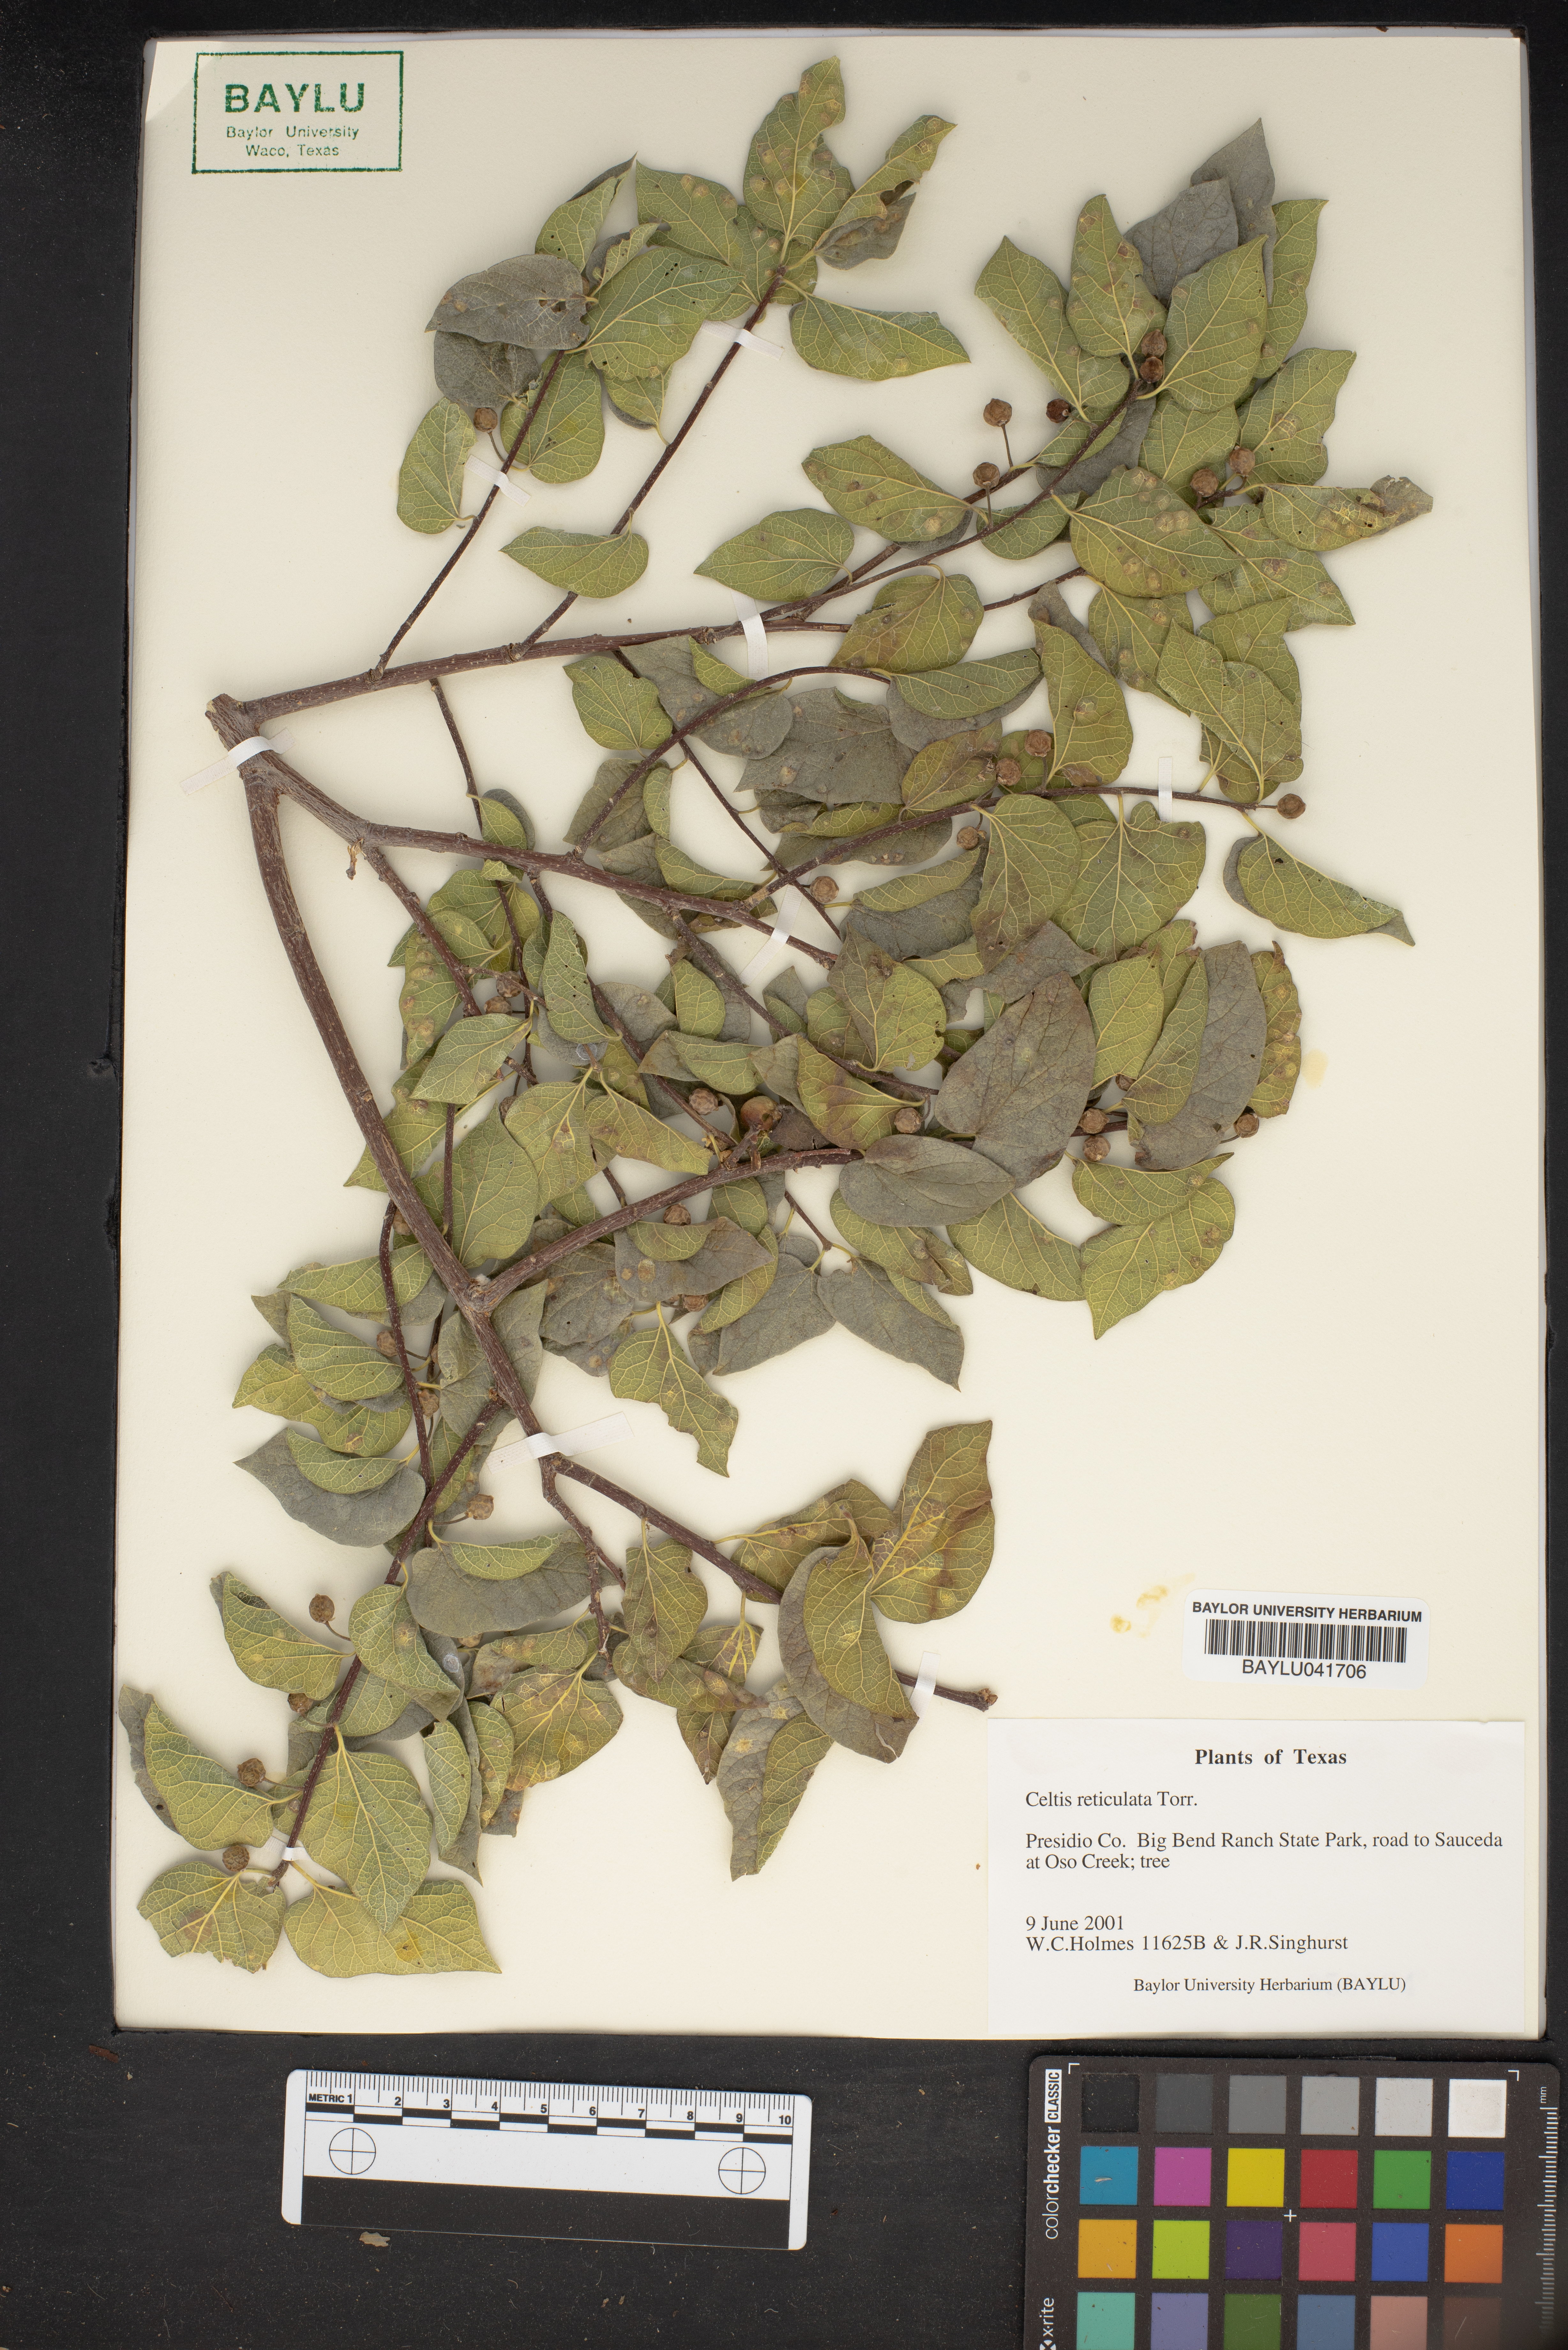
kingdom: Plantae
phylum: Tracheophyta
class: Magnoliopsida
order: Rosales
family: Cannabaceae
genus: Celtis
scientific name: Celtis reticulata
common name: Netleaf hackberry
